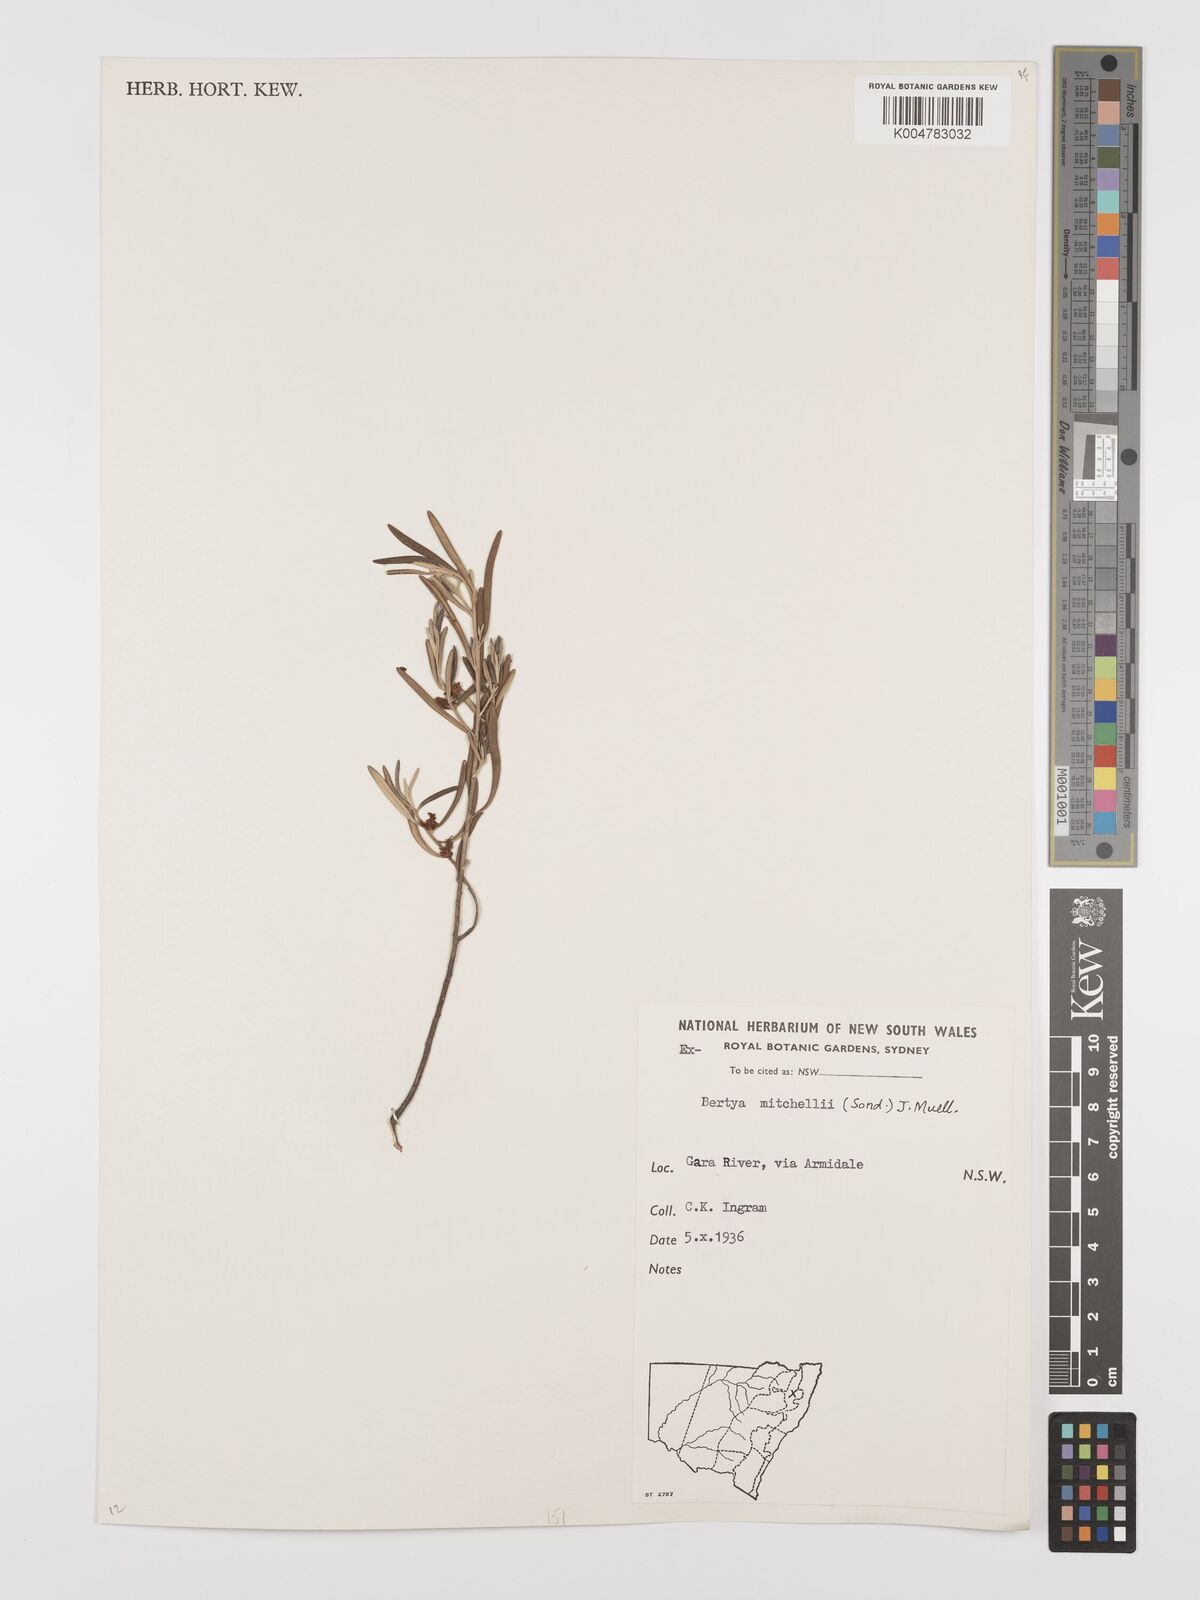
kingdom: Plantae
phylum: Tracheophyta
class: Magnoliopsida
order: Malpighiales
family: Euphorbiaceae
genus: Bertya
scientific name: Bertya oleifolia
